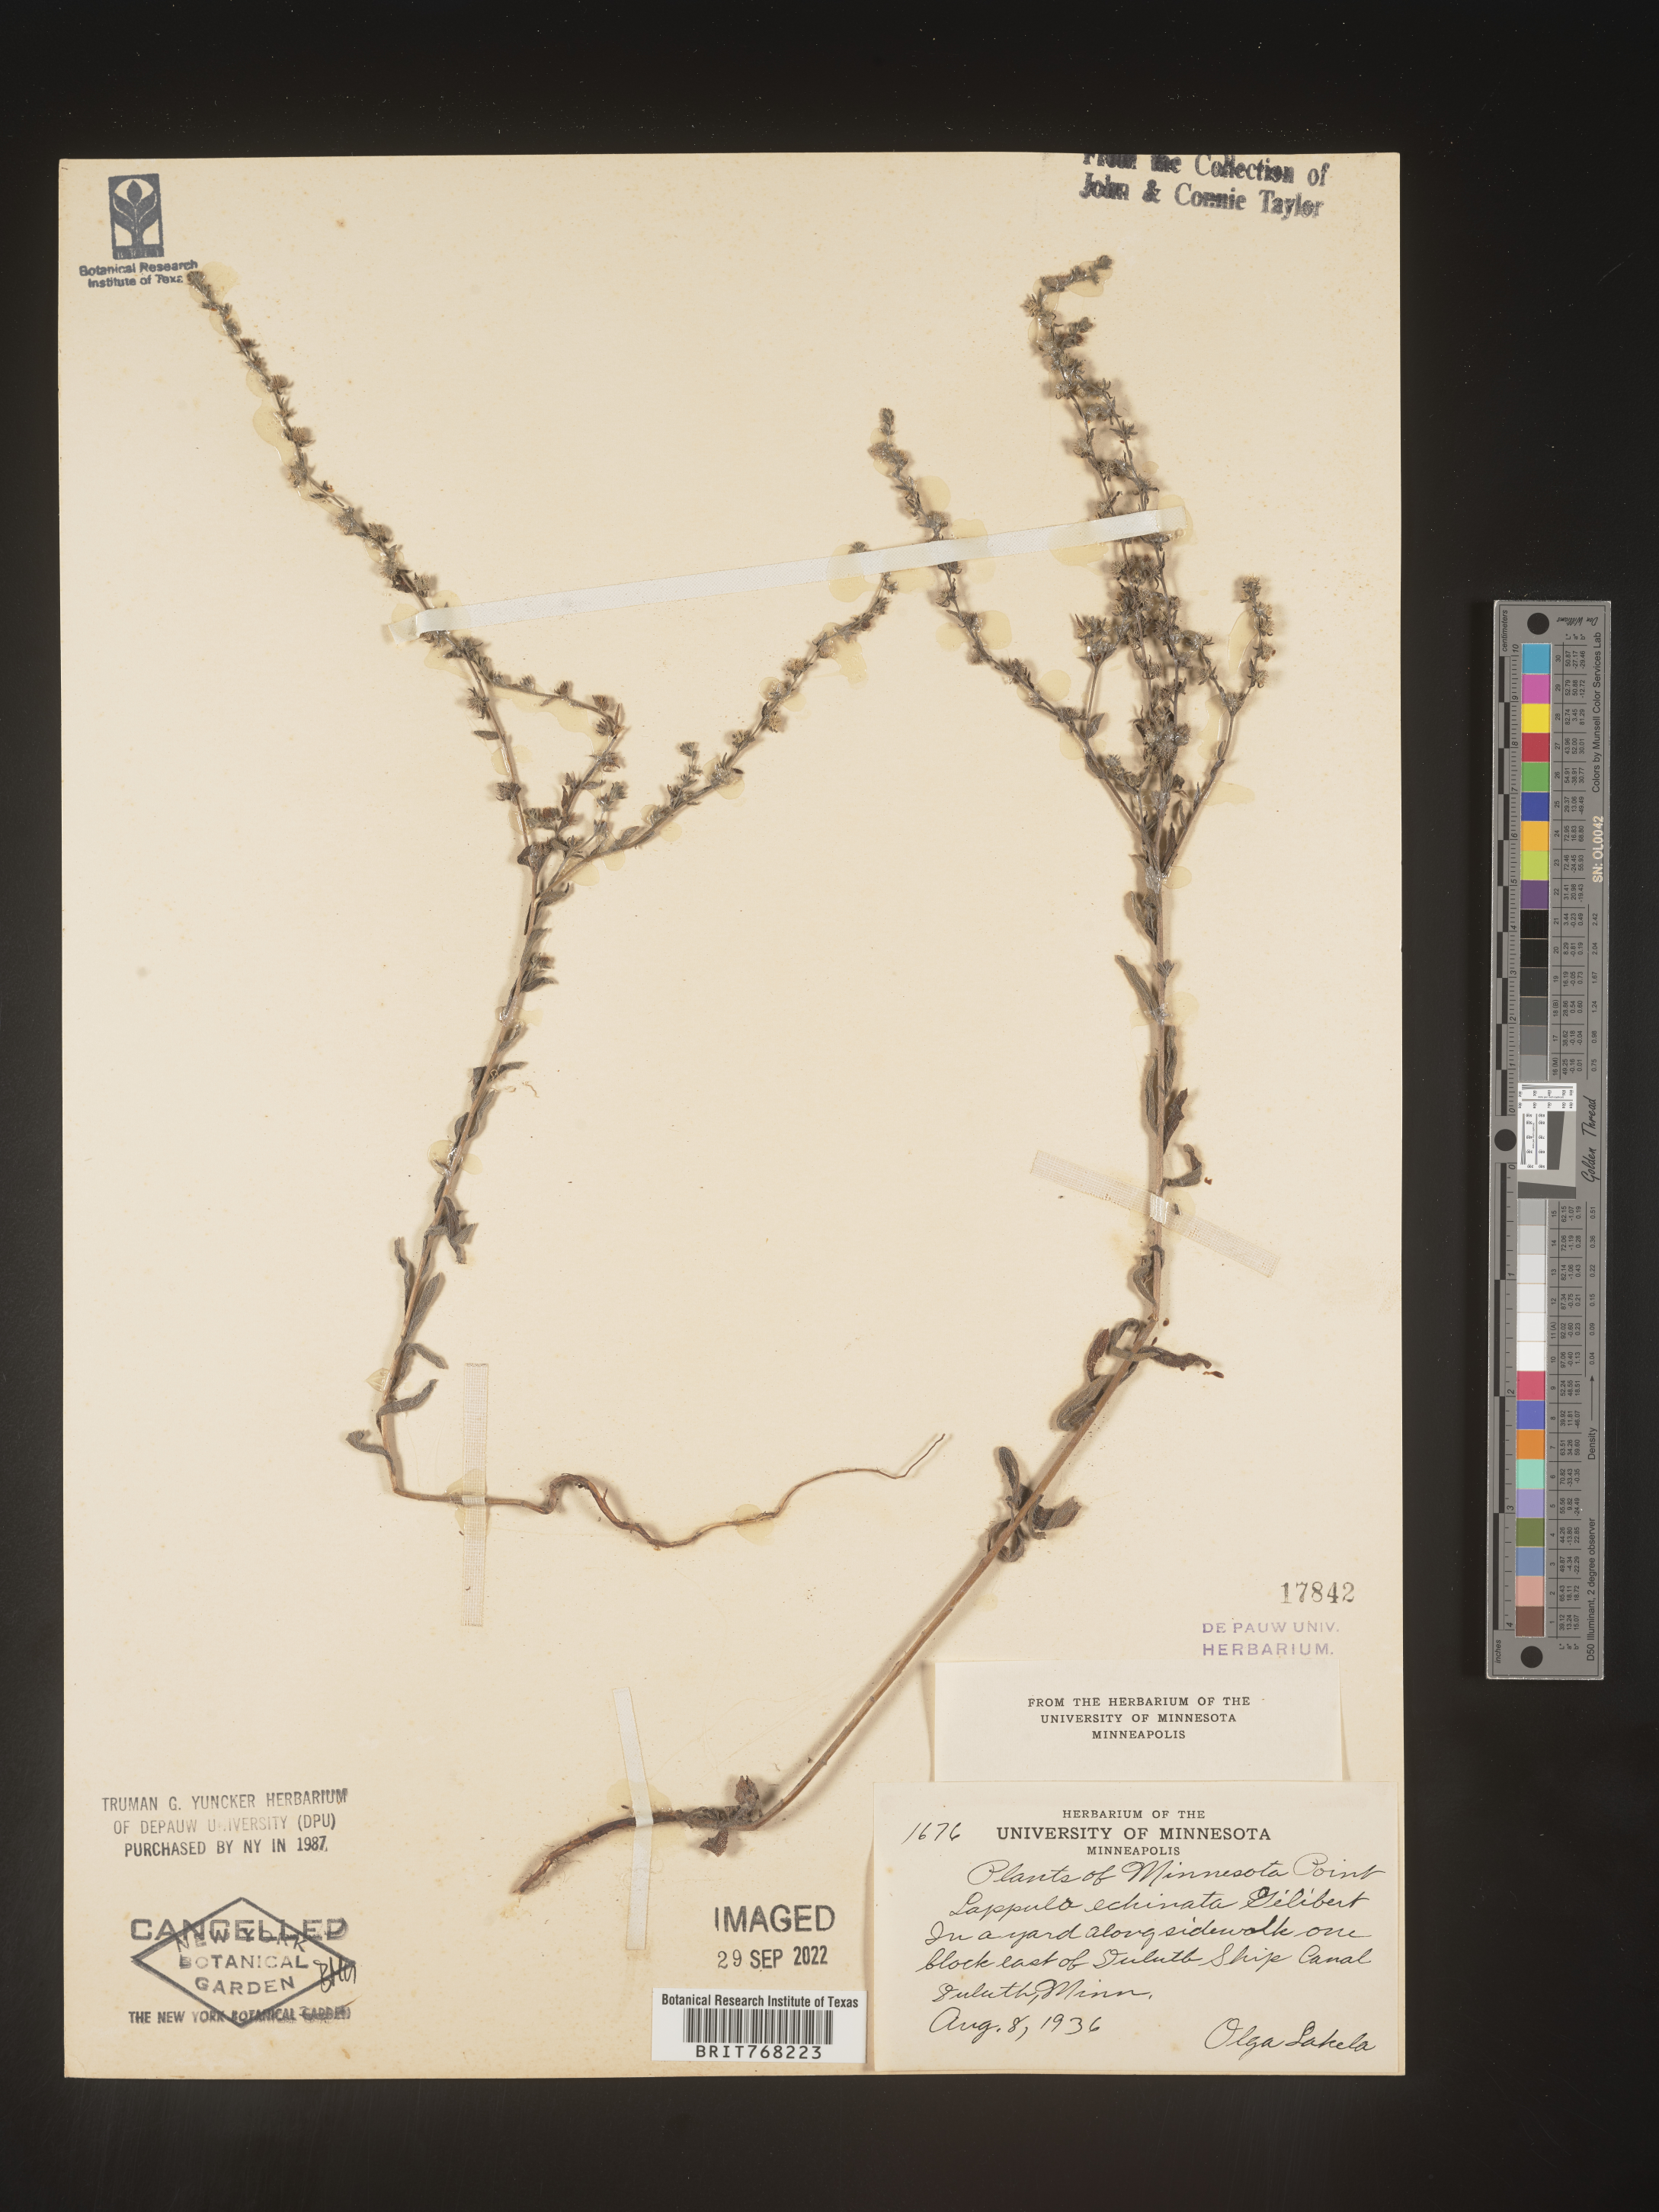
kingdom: Plantae
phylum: Tracheophyta
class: Magnoliopsida
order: Boraginales
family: Boraginaceae
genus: Lappula
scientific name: Lappula
